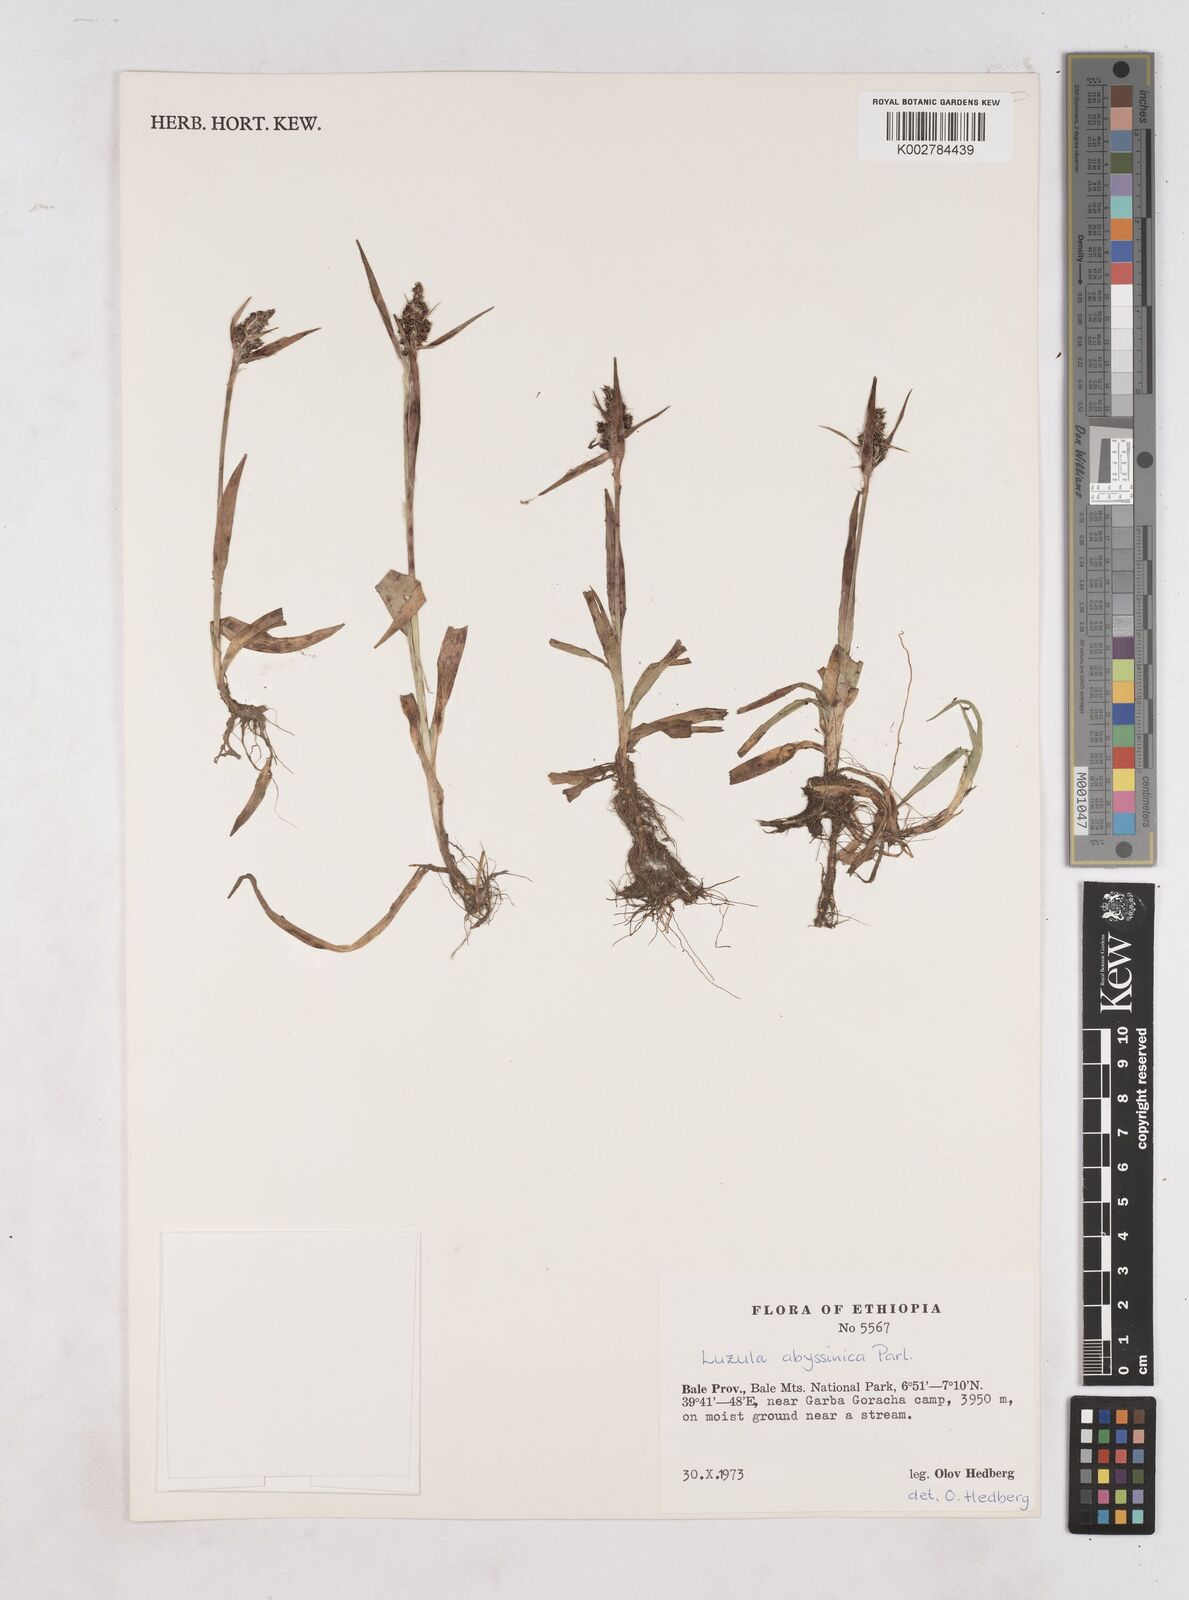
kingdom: Plantae
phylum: Tracheophyta
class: Liliopsida
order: Poales
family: Juncaceae
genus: Luzula
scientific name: Luzula abyssinica
